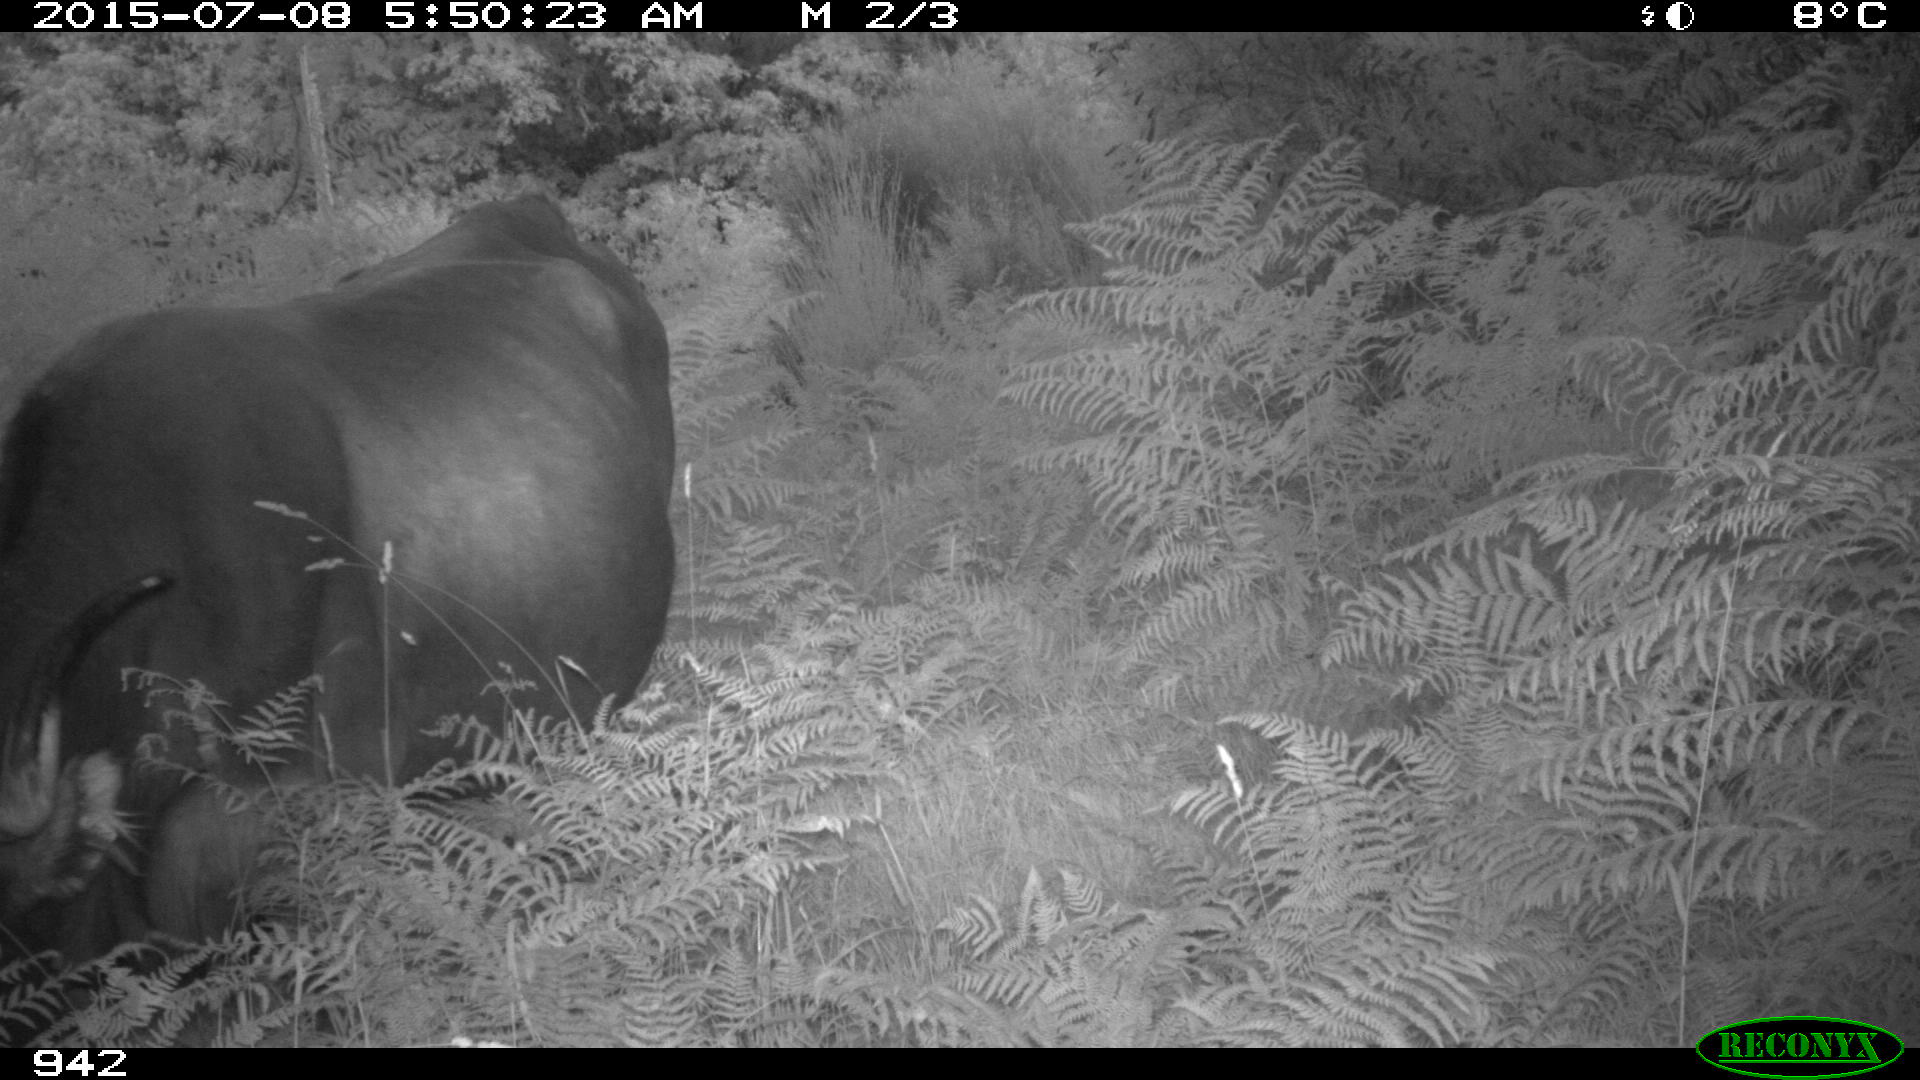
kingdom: Animalia
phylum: Chordata
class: Mammalia
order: Artiodactyla
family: Bovidae
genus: Bos
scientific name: Bos taurus
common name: Domesticated cattle
